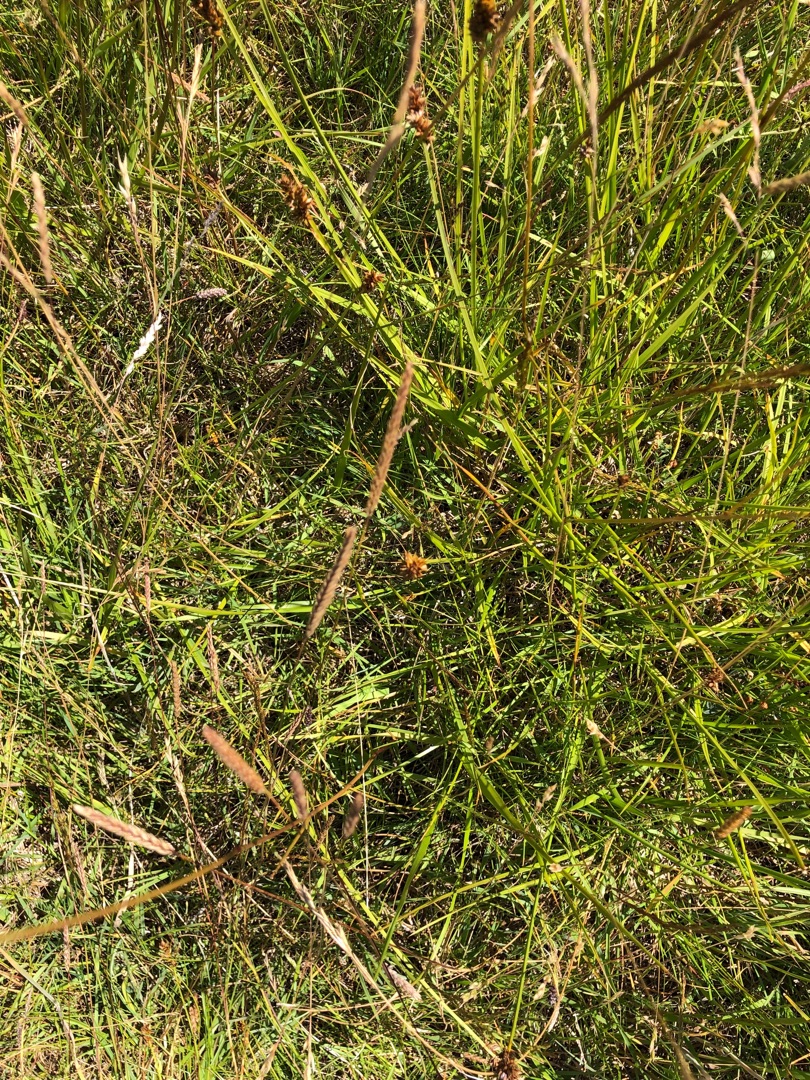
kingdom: Plantae
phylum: Tracheophyta
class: Magnoliopsida
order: Asterales
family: Asteraceae
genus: Achillea
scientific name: Achillea millefolium
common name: Almindelig røllike
